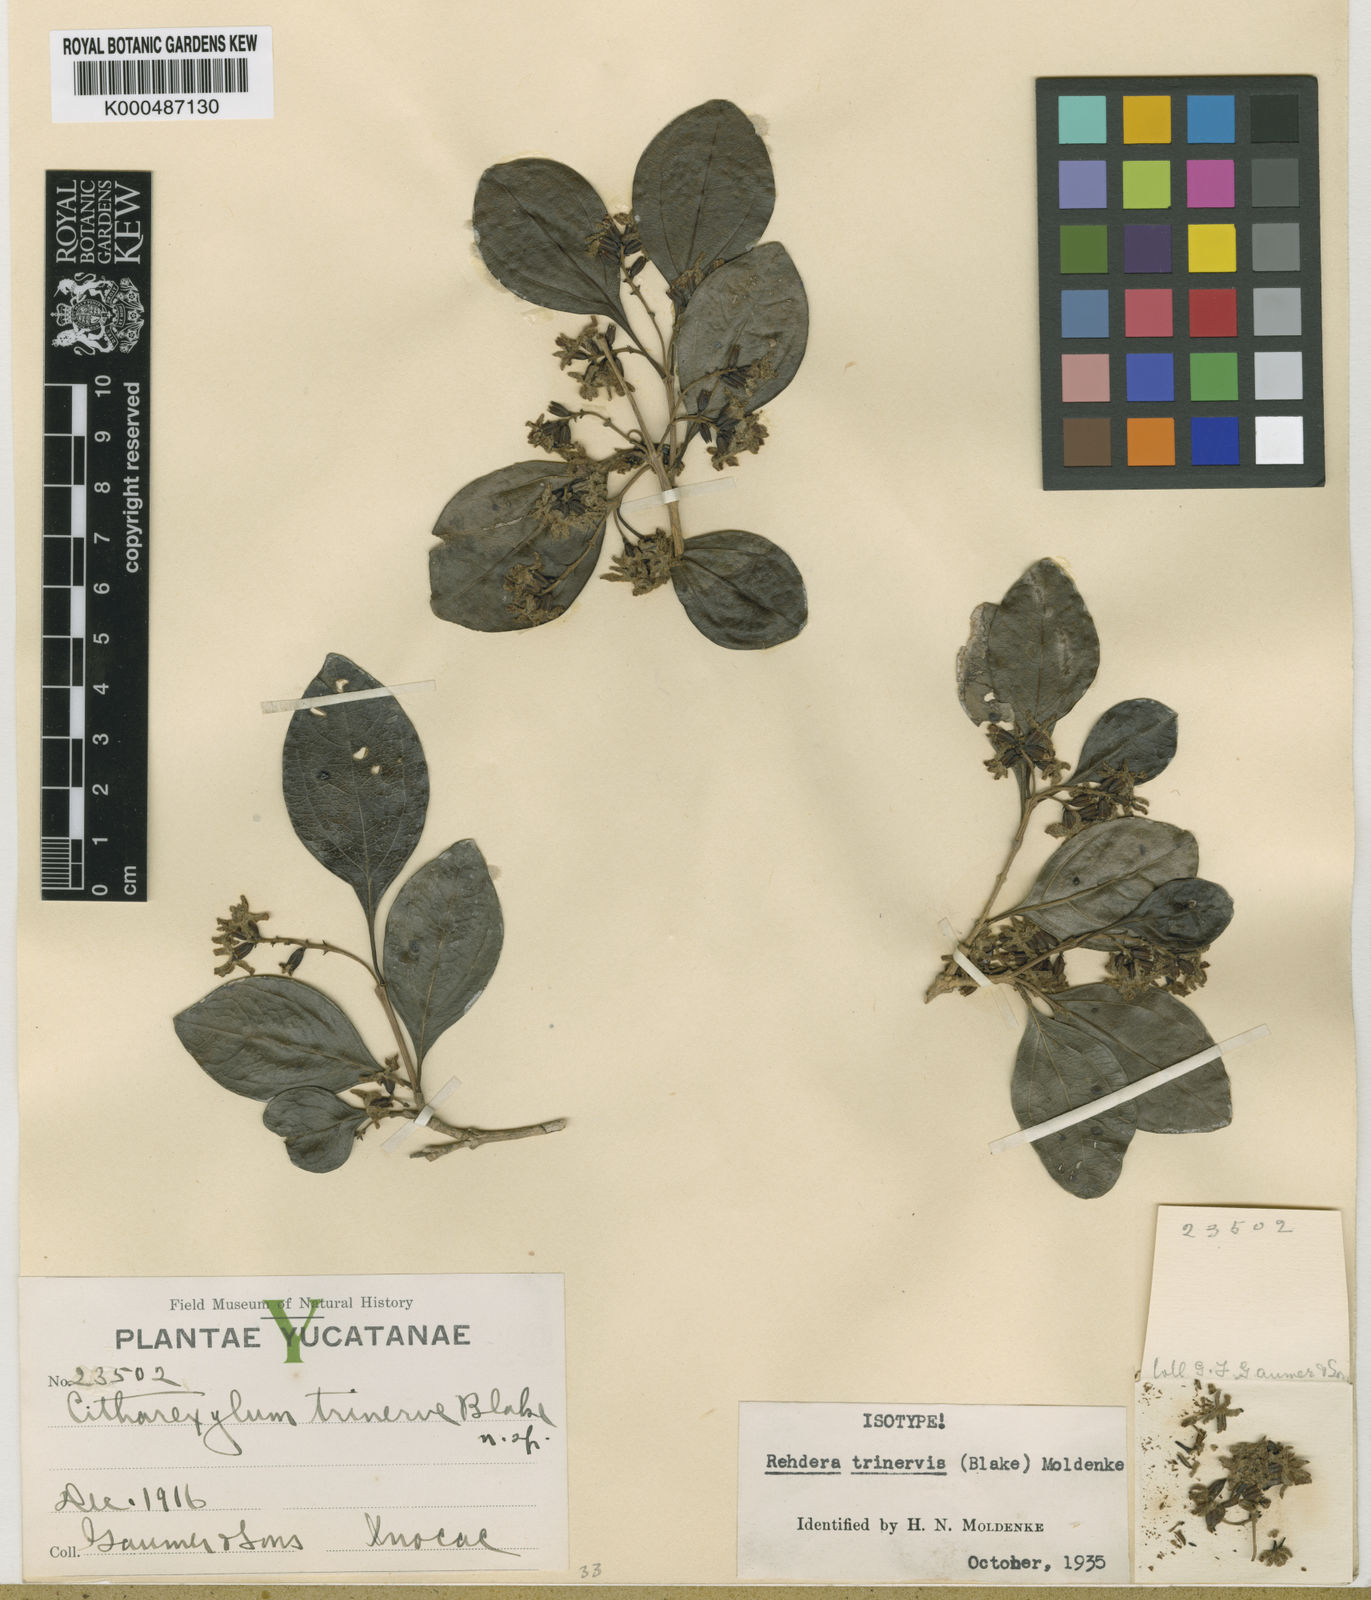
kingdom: Plantae
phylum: Tracheophyta
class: Magnoliopsida
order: Lamiales
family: Verbenaceae
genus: Rehdera
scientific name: Rehdera trinervis
